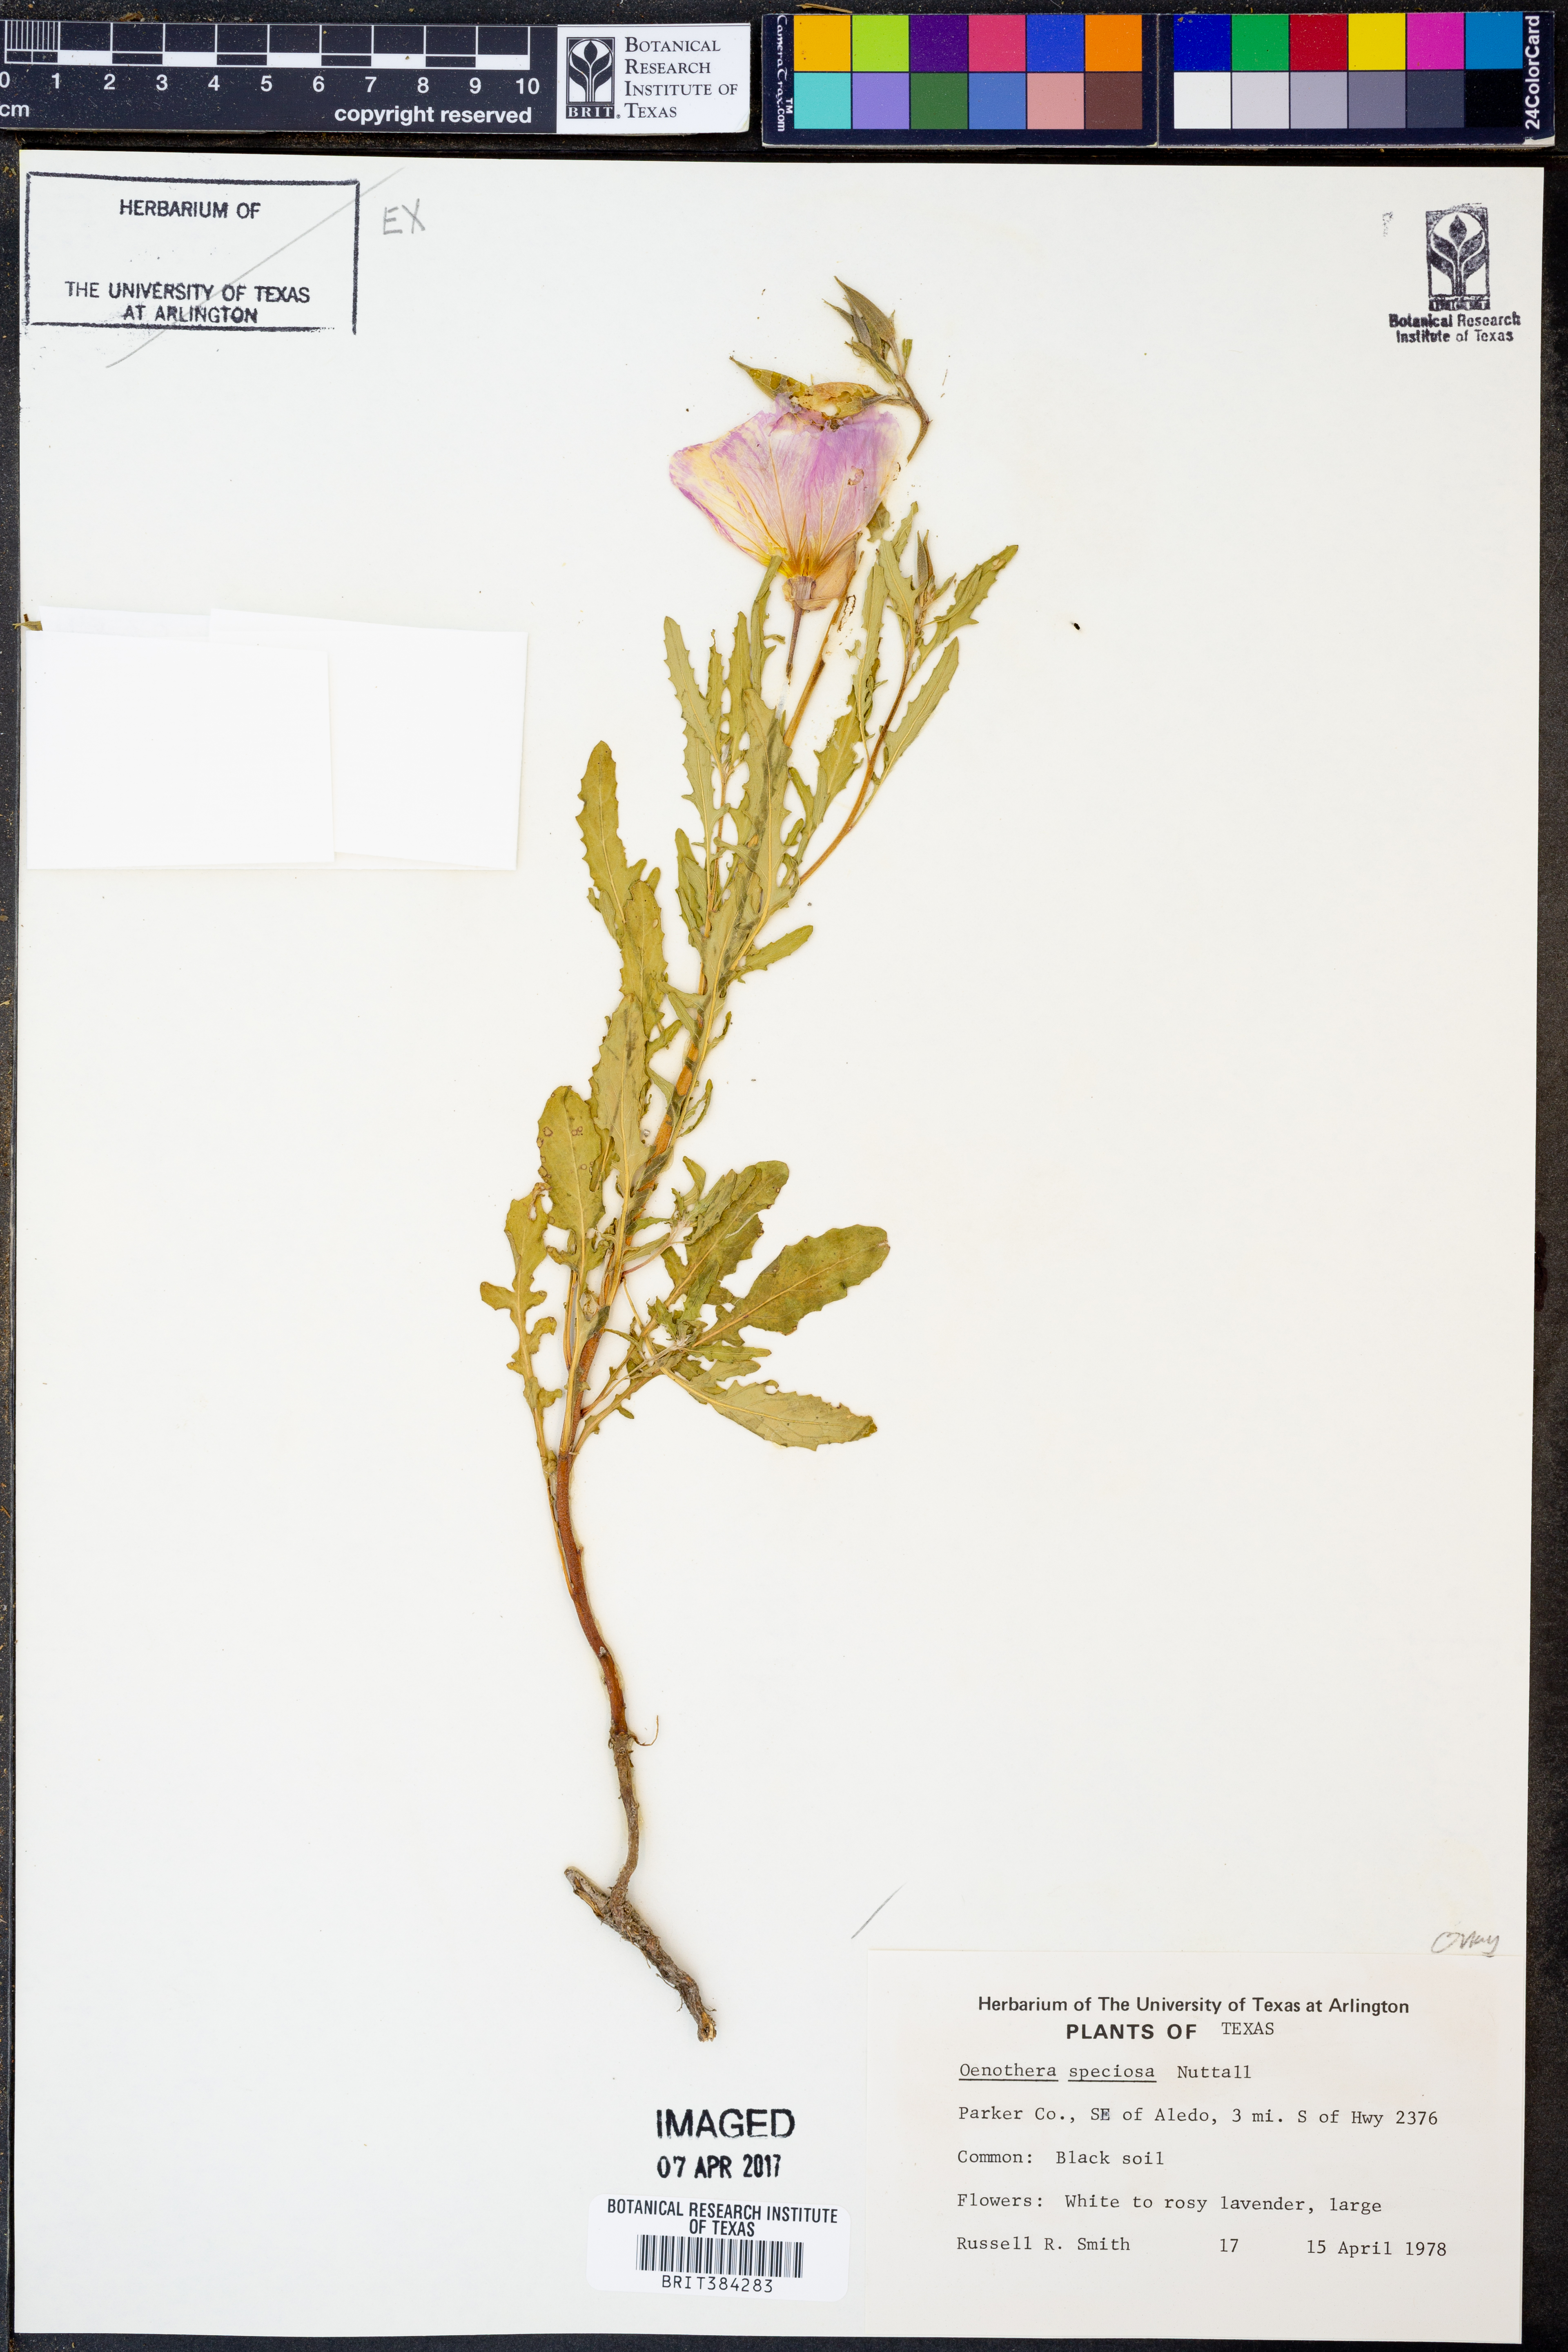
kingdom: Plantae
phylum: Tracheophyta
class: Magnoliopsida
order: Myrtales
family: Onagraceae
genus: Oenothera
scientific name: Oenothera speciosa
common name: White evening-primrose
